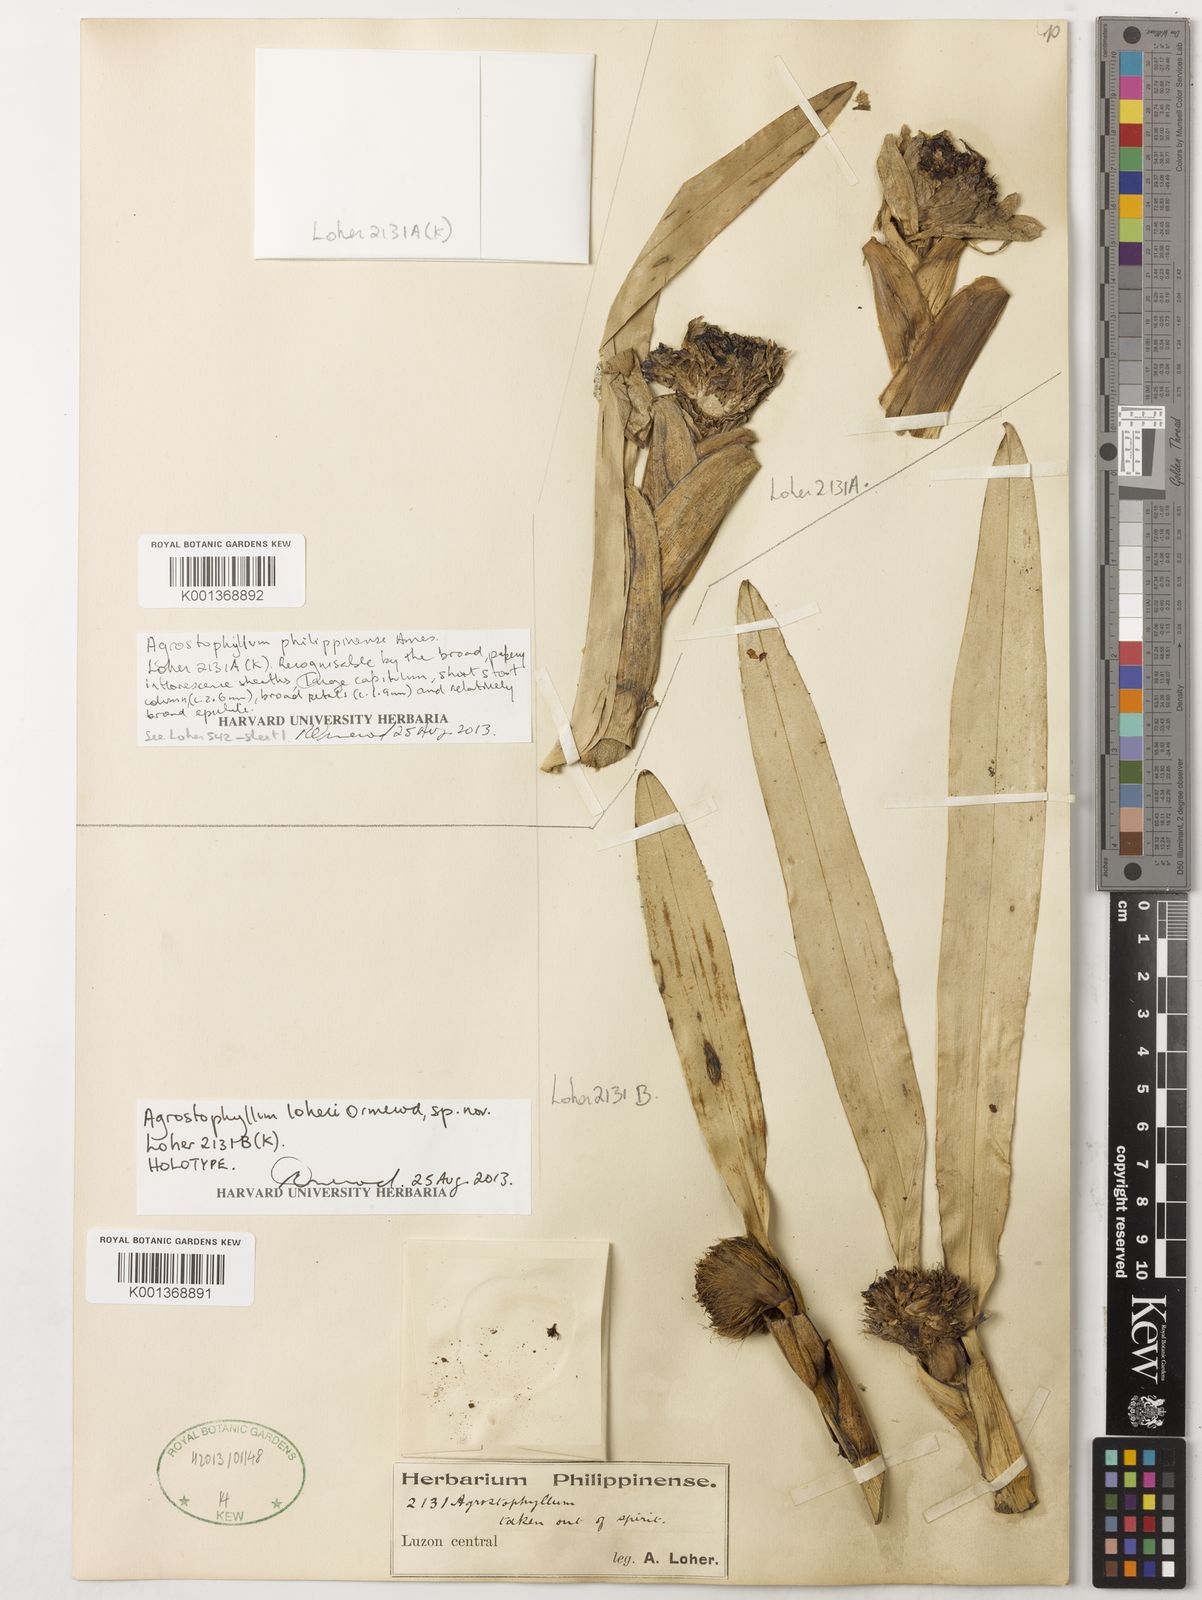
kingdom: Plantae
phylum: Tracheophyta
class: Liliopsida
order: Asparagales
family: Orchidaceae
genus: Agrostophyllum
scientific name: Agrostophyllum loheri
